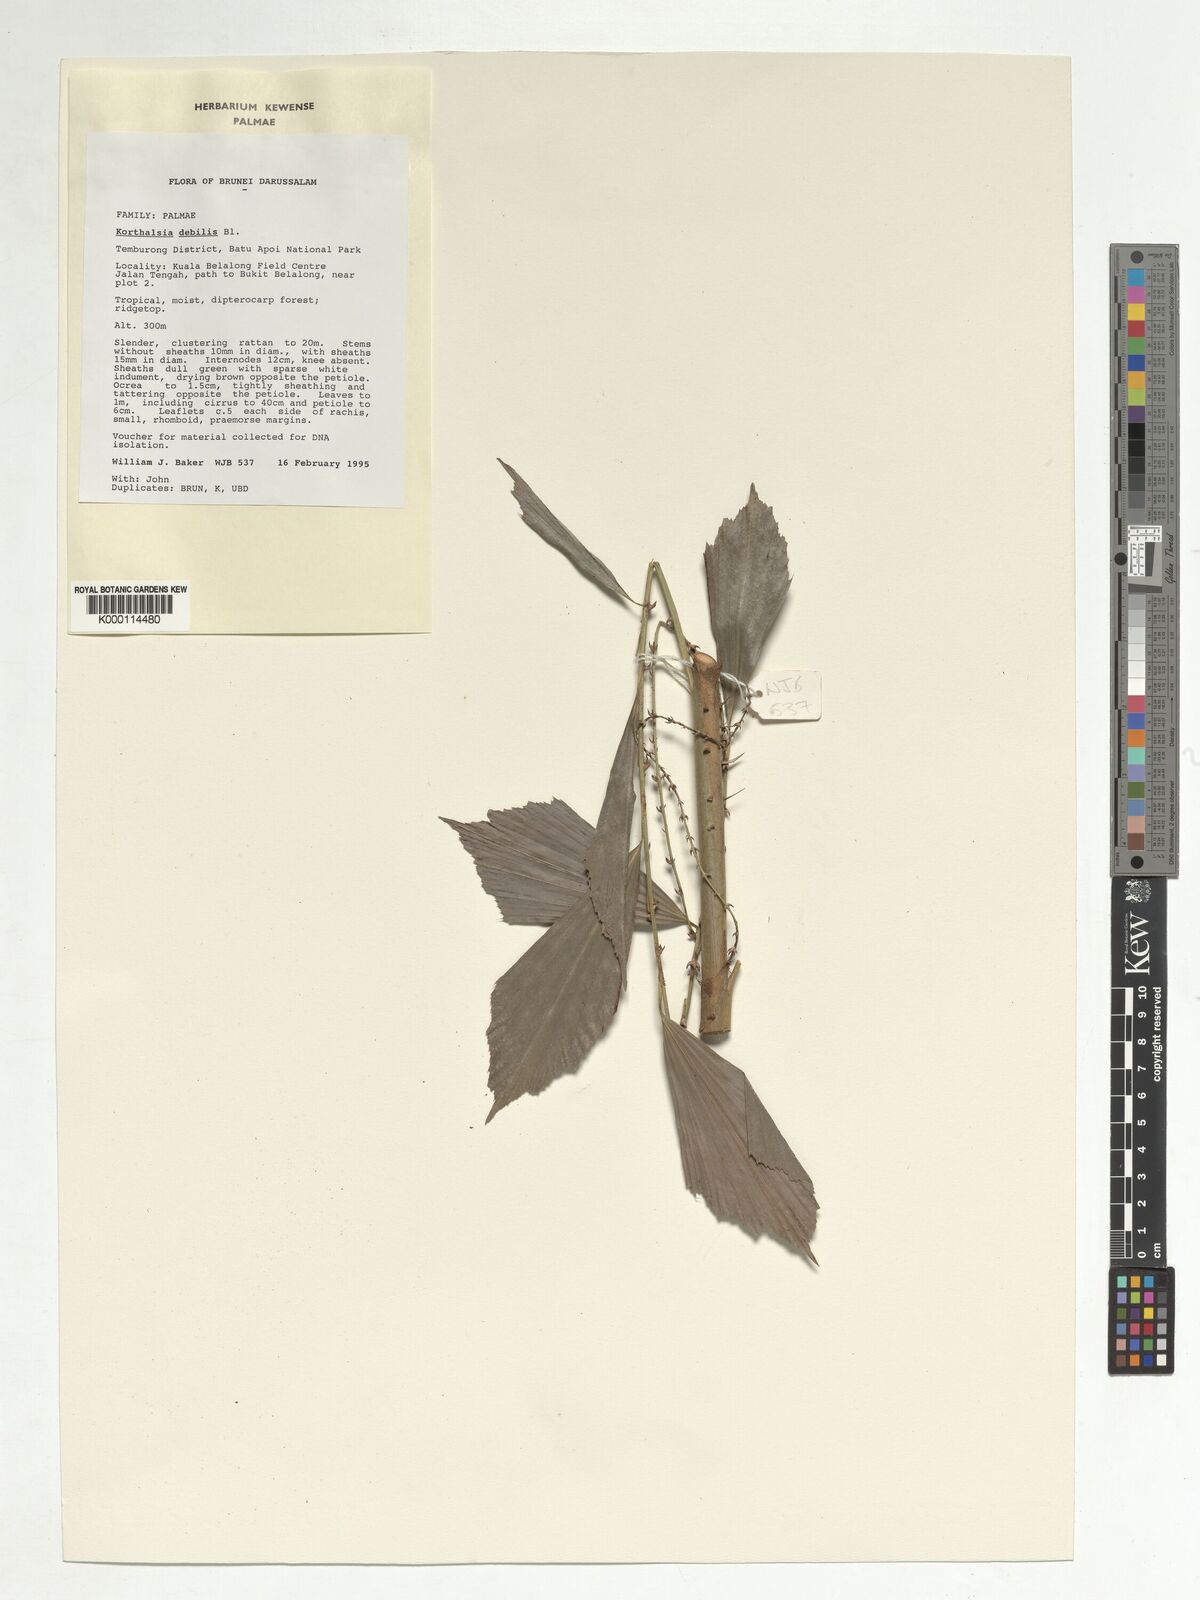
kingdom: Plantae
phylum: Tracheophyta
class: Liliopsida
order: Arecales
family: Arecaceae
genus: Korthalsia
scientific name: Korthalsia debilis
